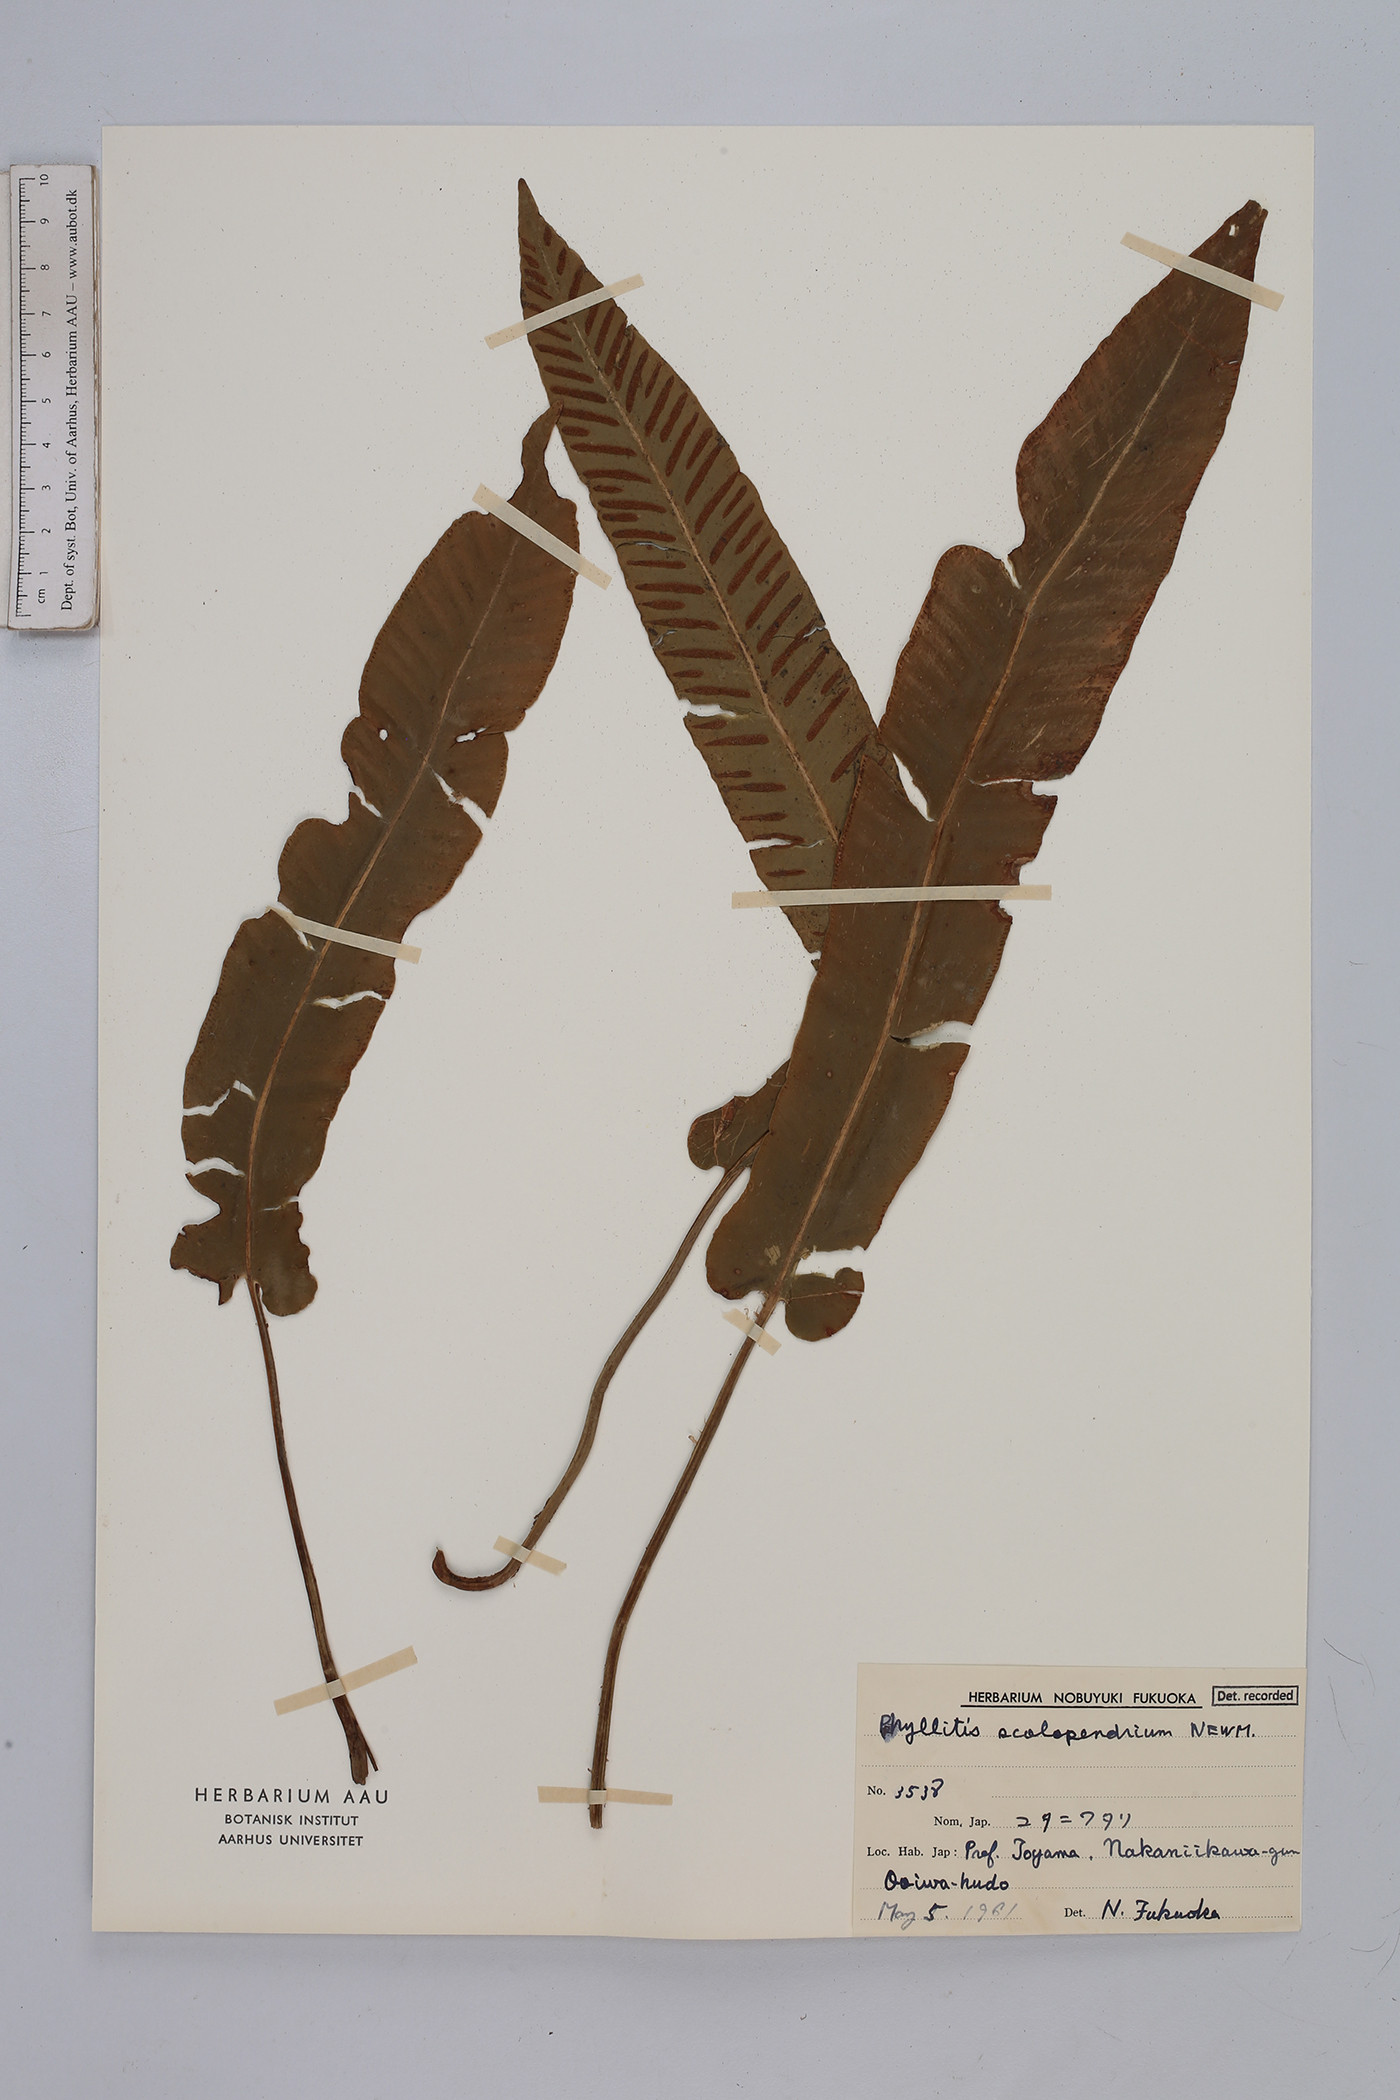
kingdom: Plantae
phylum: Tracheophyta
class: Polypodiopsida
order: Polypodiales
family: Aspleniaceae
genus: Asplenium
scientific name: Asplenium scolopendrium
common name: Hart's-tongue fern
